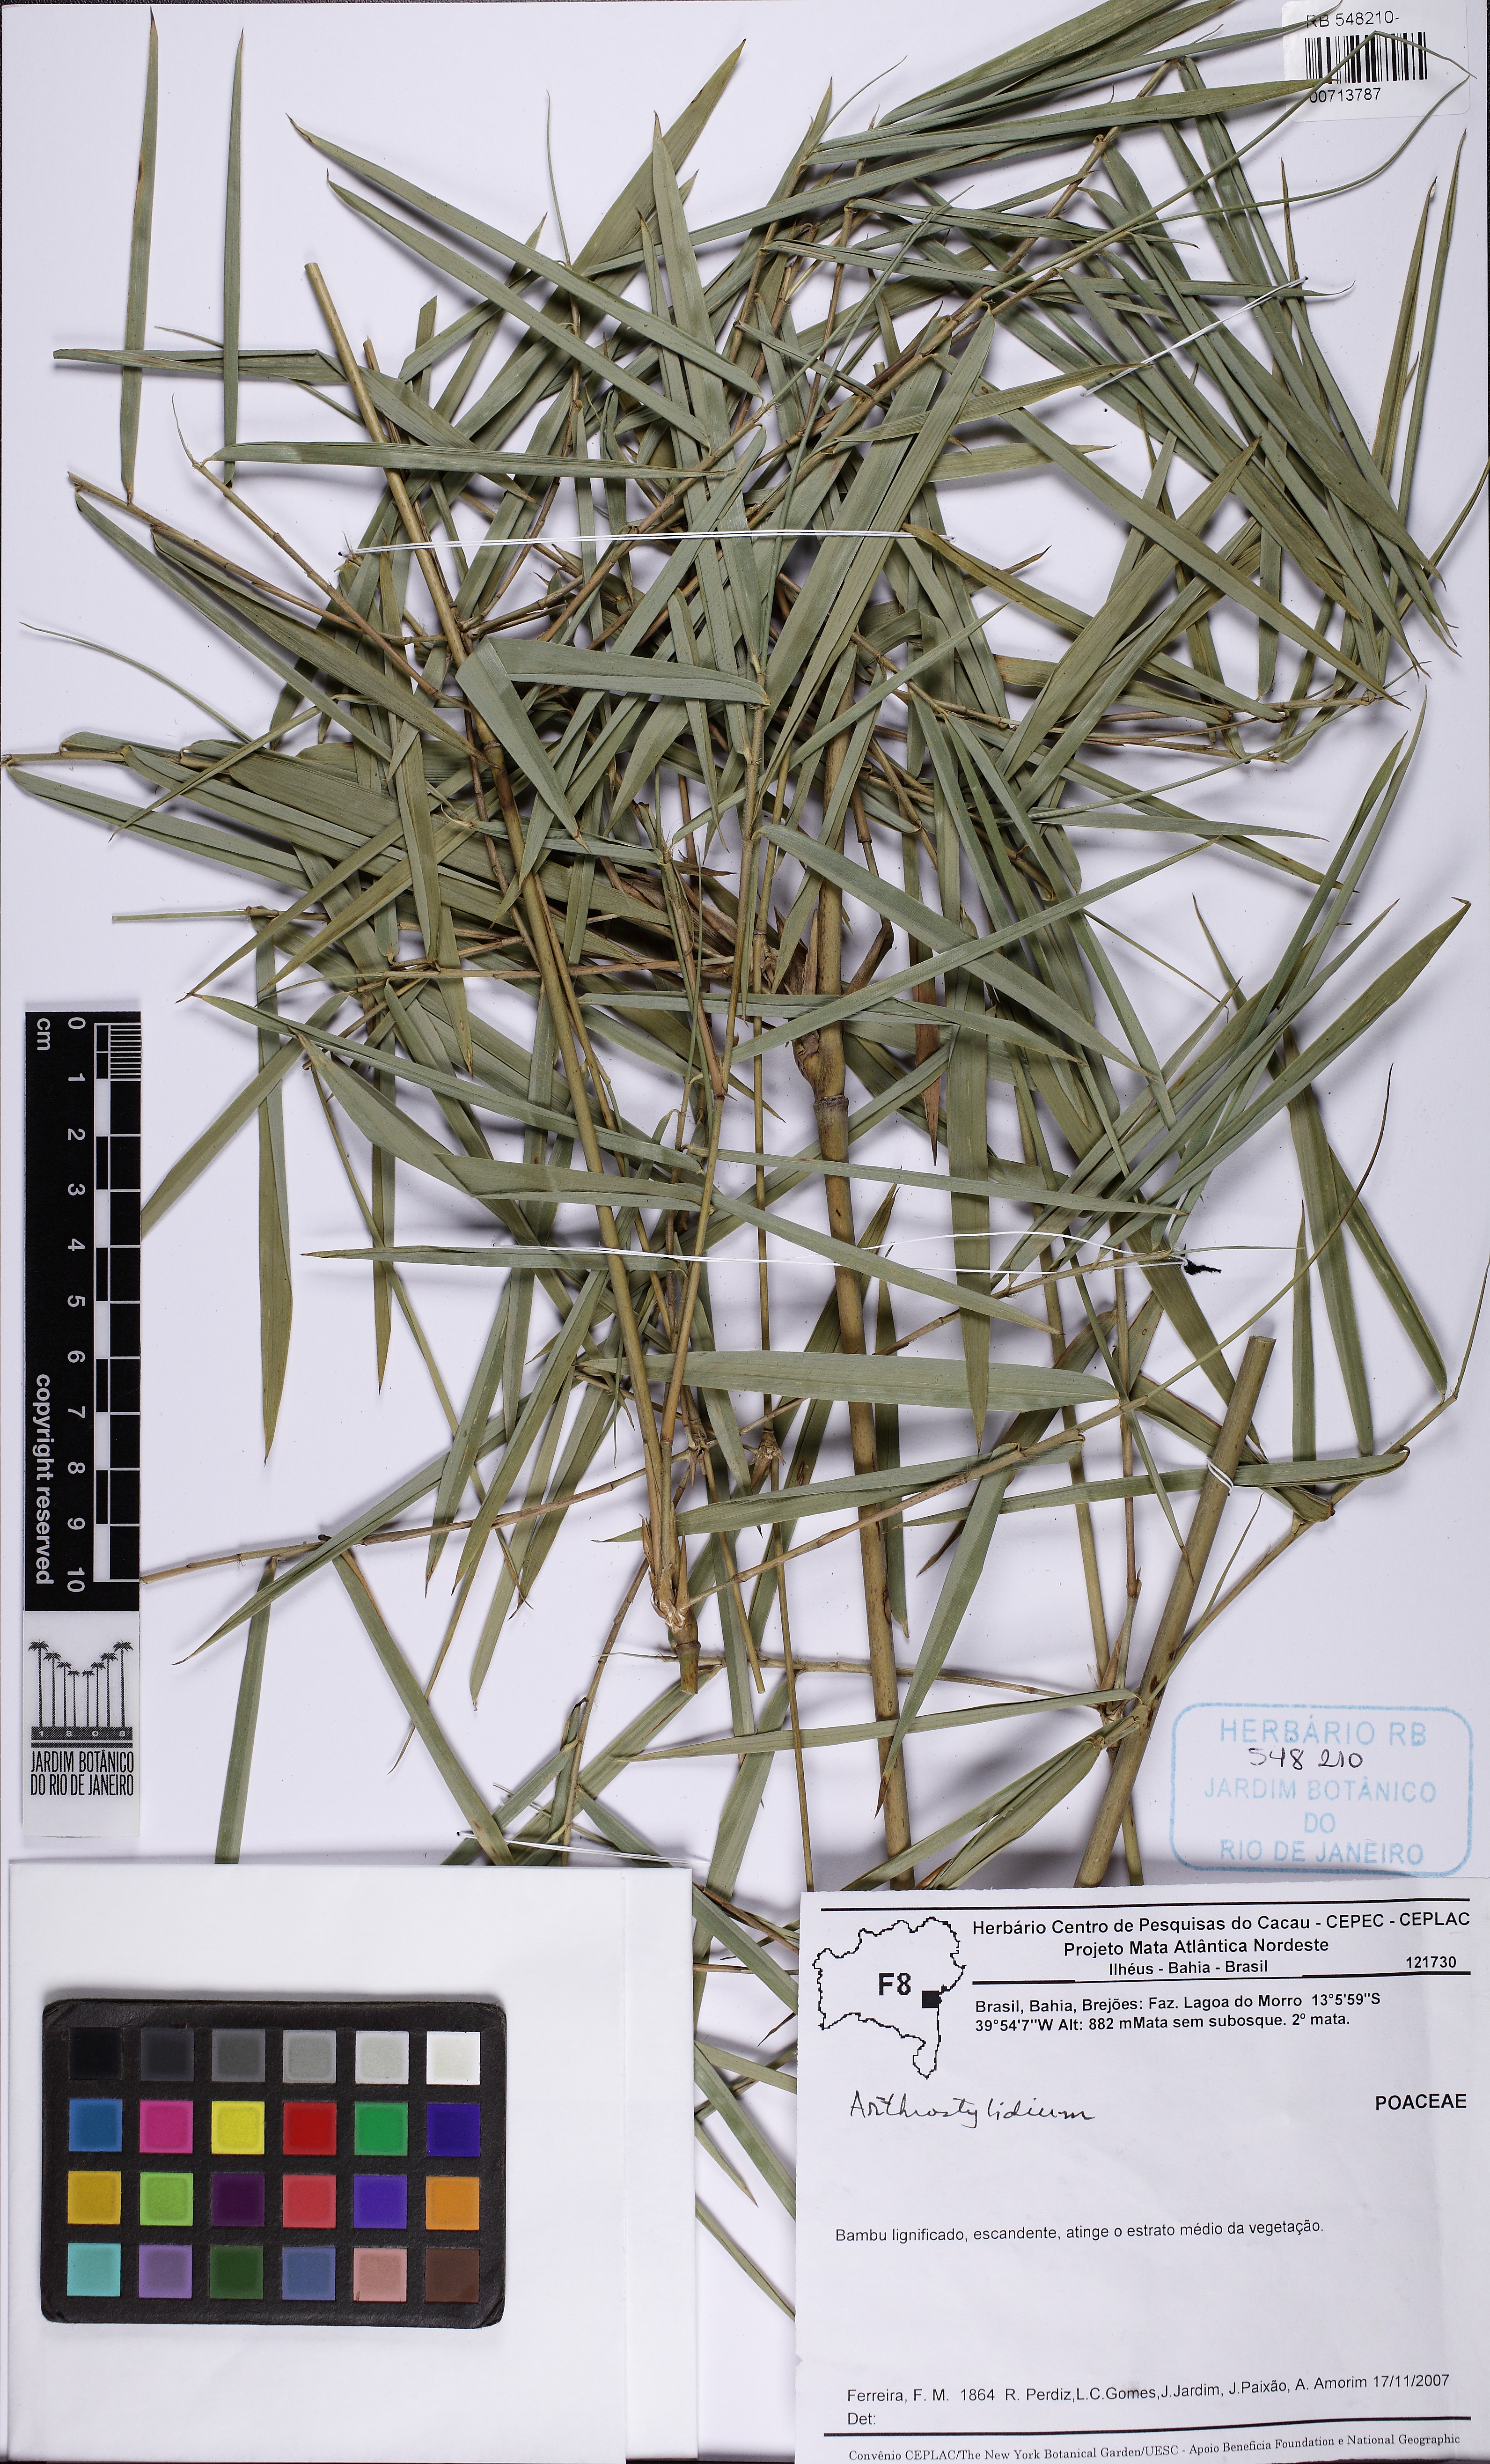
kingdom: Plantae
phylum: Tracheophyta
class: Liliopsida
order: Poales
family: Poaceae
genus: Arthrostylidium
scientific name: Arthrostylidium
